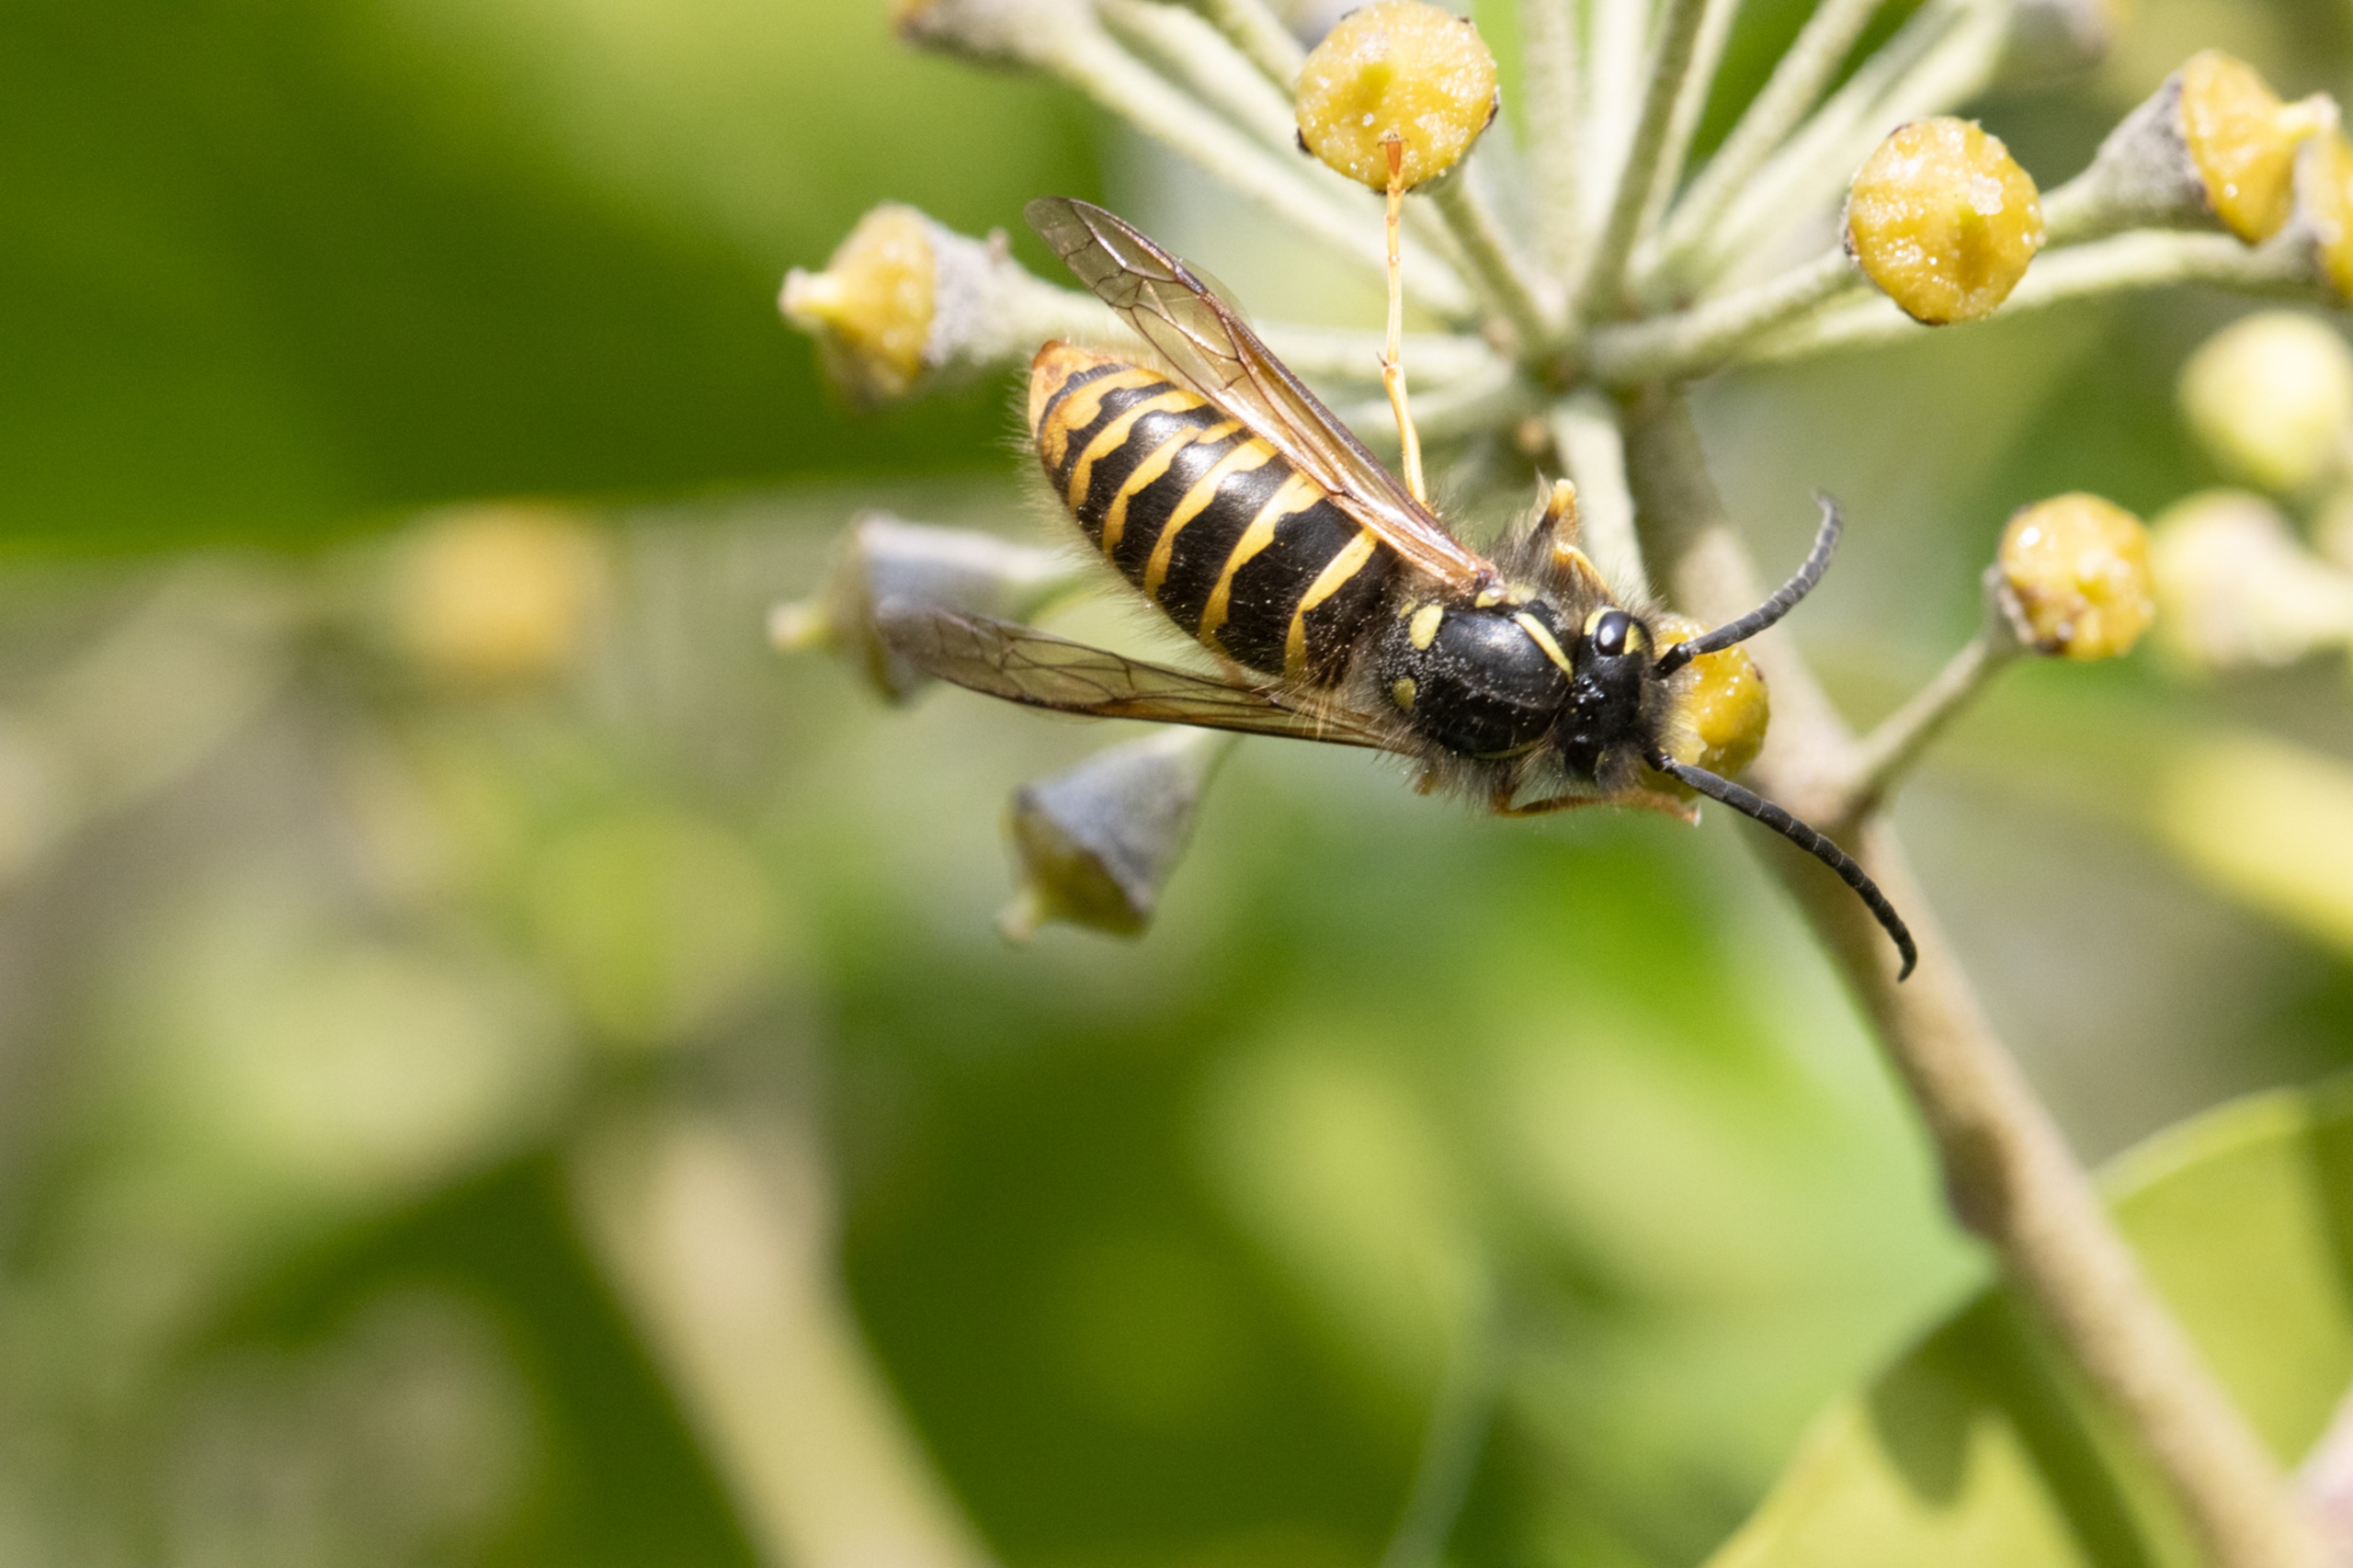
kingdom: Animalia
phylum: Arthropoda
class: Insecta
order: Hymenoptera
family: Vespidae
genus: Vespula
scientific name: Vespula vulgaris
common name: Almindelig gedehams
